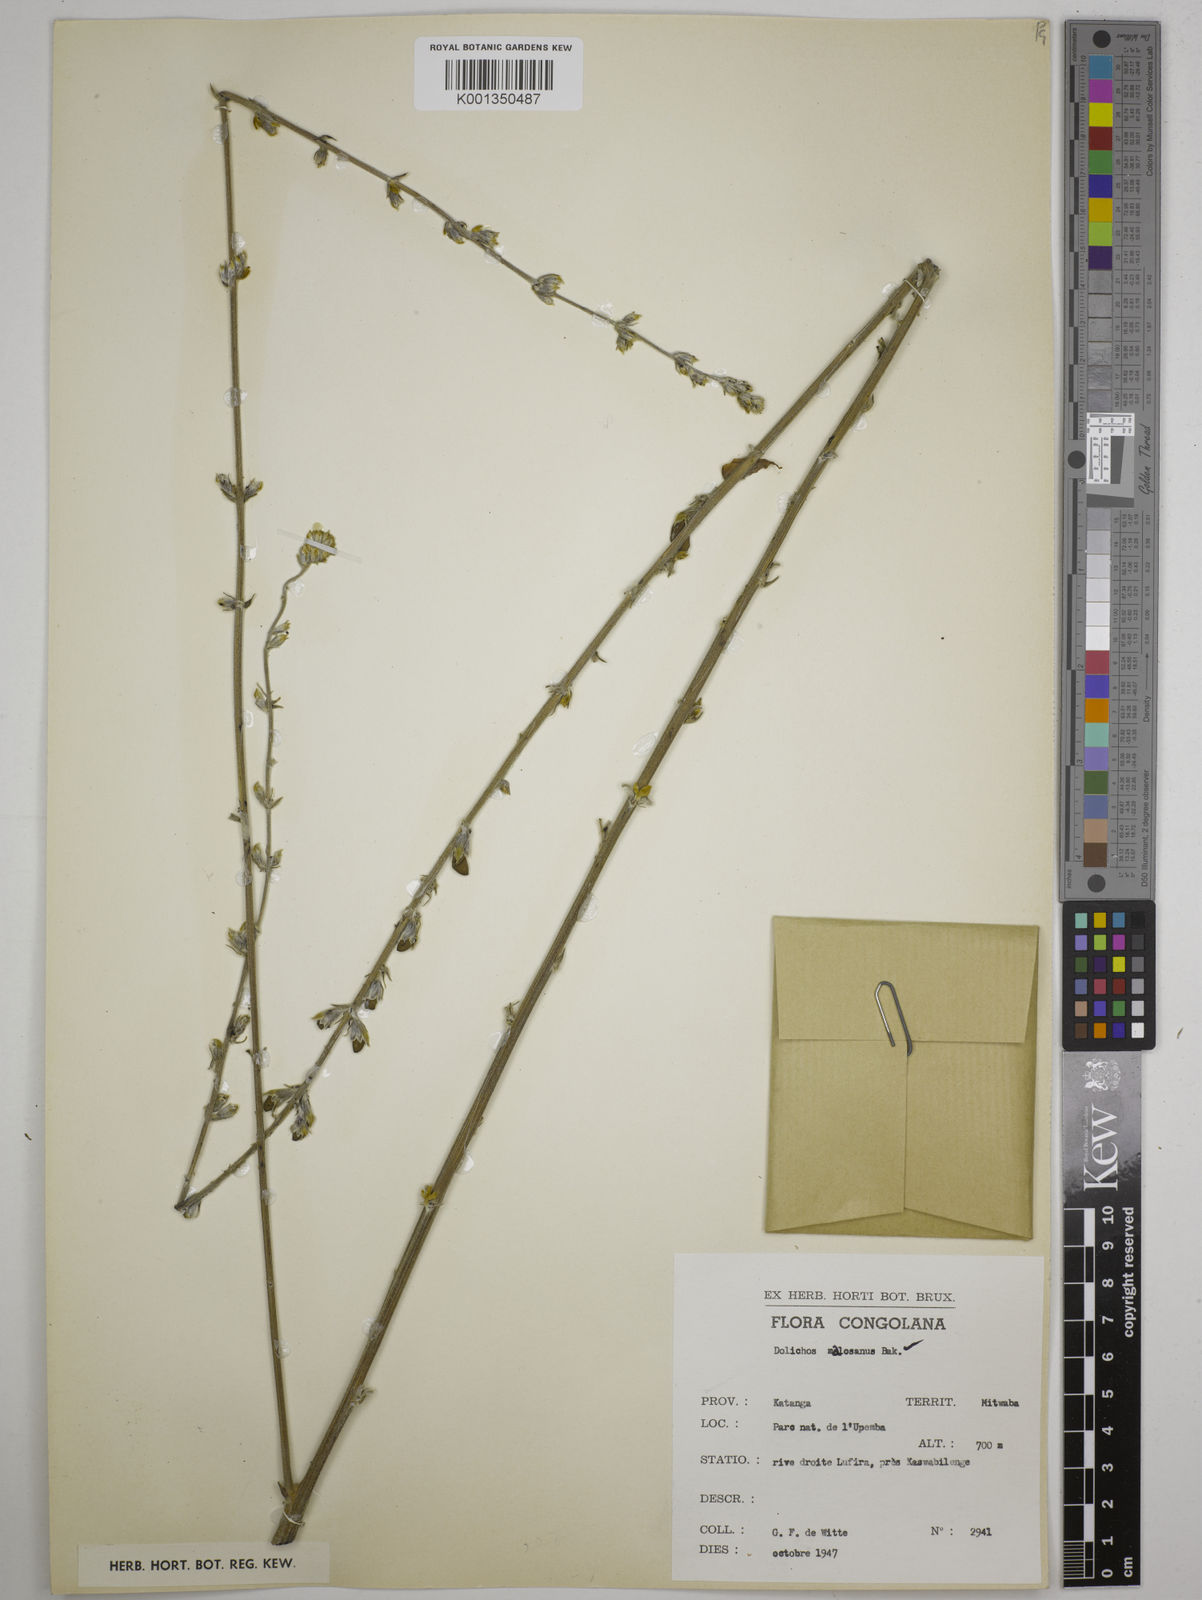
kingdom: Plantae
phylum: Tracheophyta
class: Magnoliopsida
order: Fabales
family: Fabaceae
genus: Dolichos
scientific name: Dolichos kilimandscharicus
